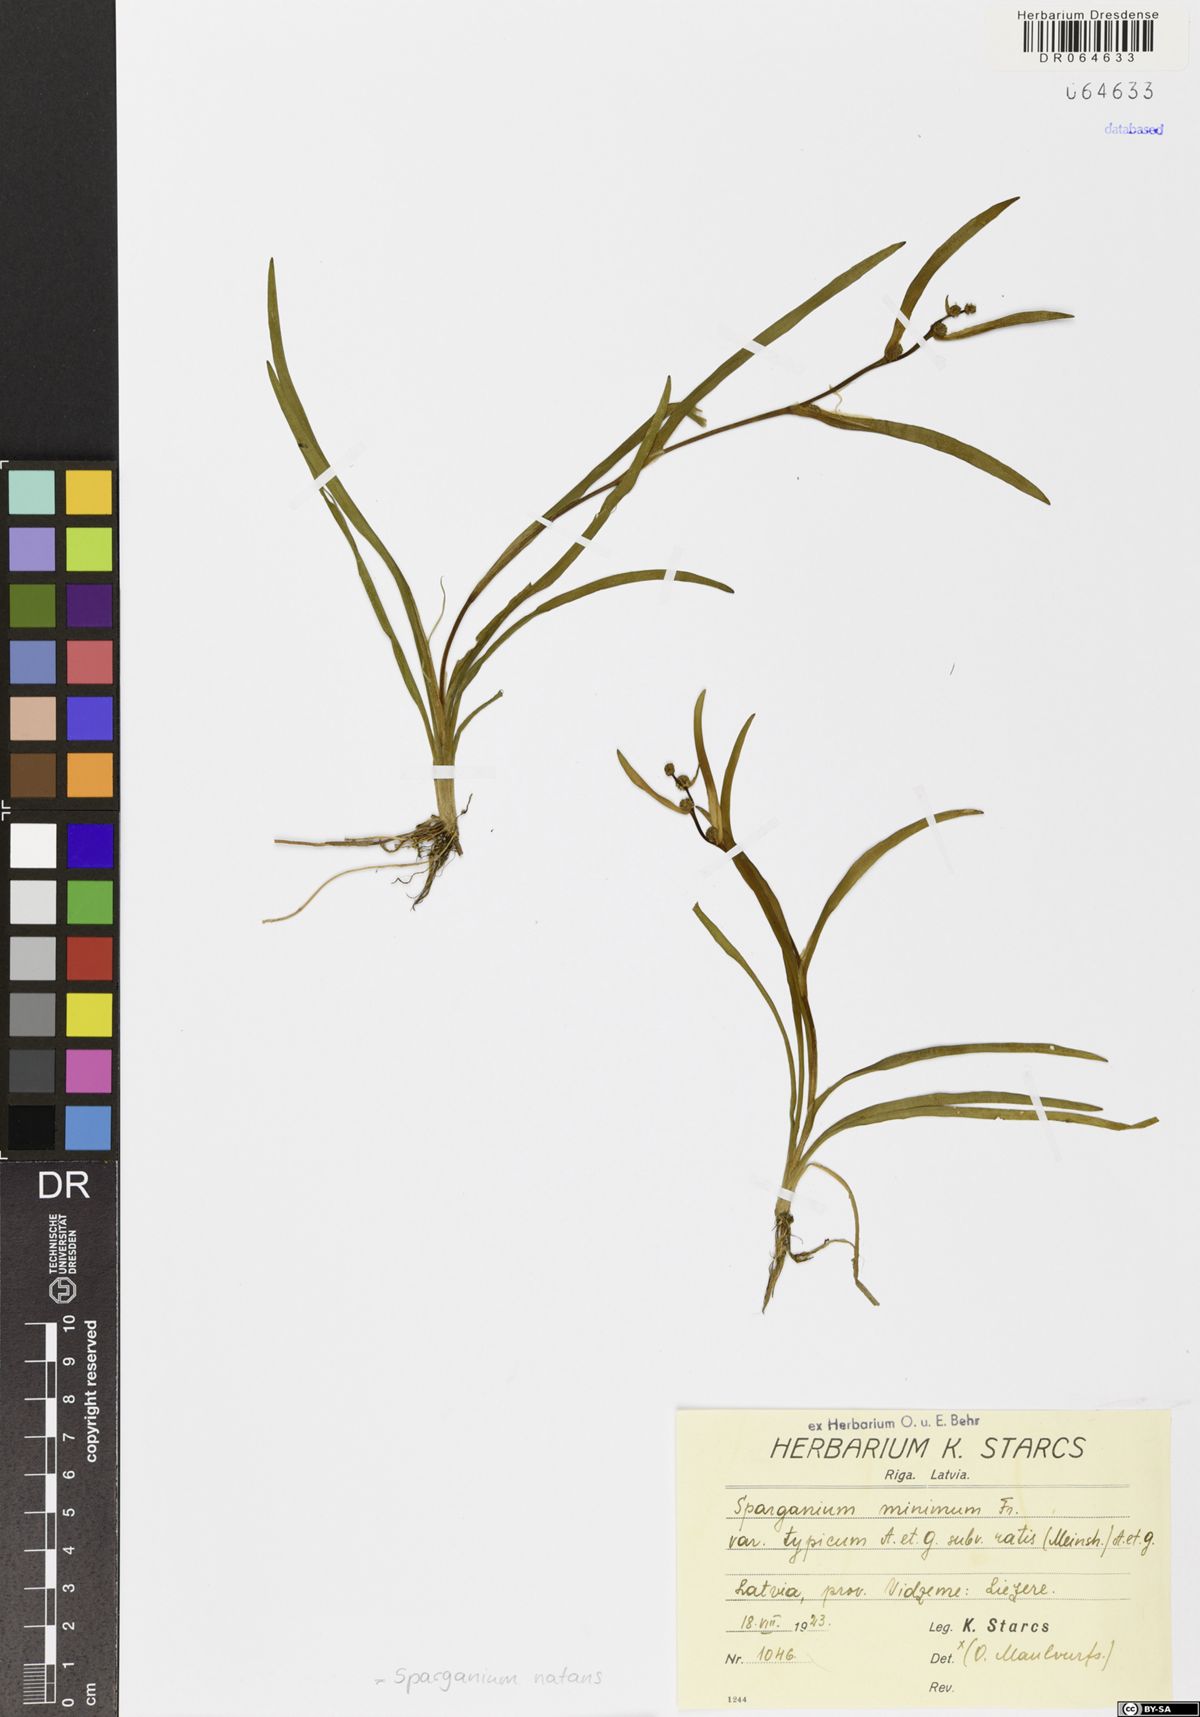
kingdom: Plantae
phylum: Tracheophyta
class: Liliopsida
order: Poales
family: Typhaceae
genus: Sparganium
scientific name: Sparganium natans
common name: Least bur-reed
